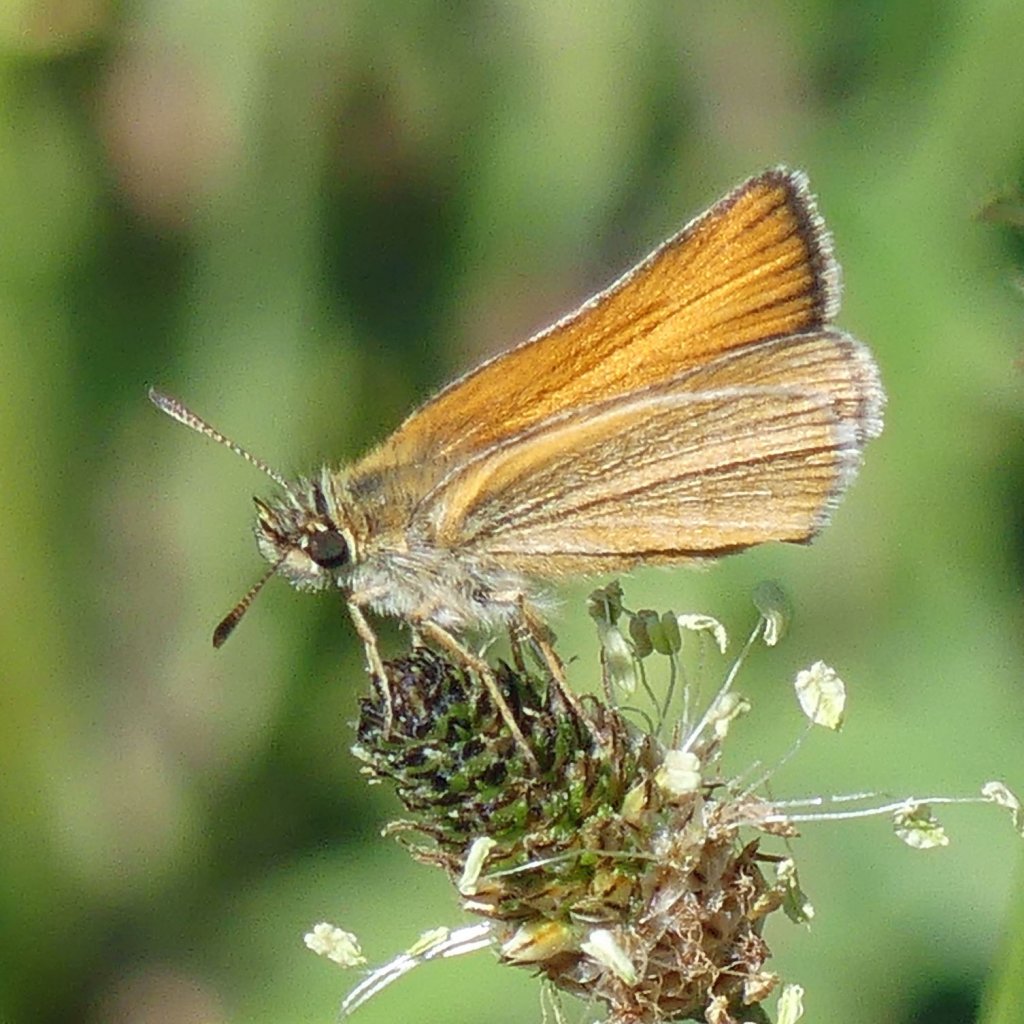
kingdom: Animalia
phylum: Arthropoda
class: Insecta
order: Lepidoptera
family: Hesperiidae
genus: Thymelicus
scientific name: Thymelicus lineola
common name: European Skipper
